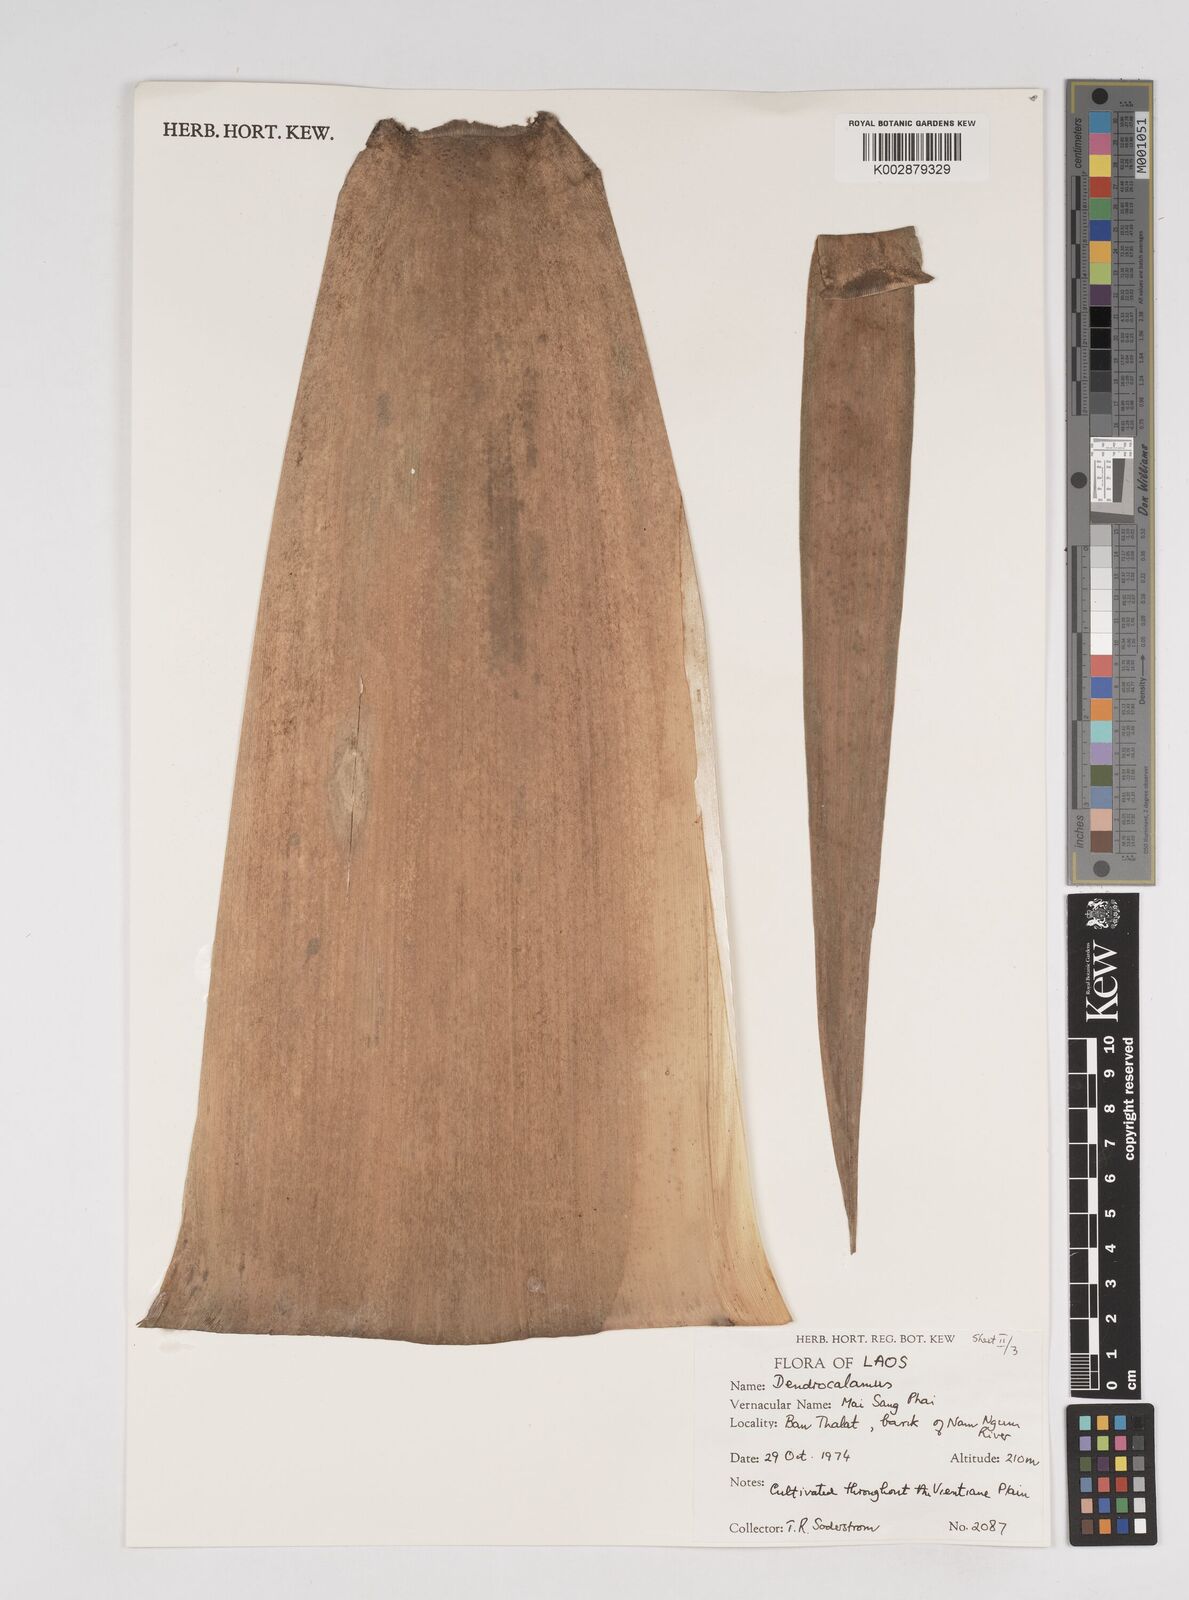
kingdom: Plantae
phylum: Tracheophyta
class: Liliopsida
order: Poales
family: Poaceae
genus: Dendrocalamus
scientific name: Dendrocalamus
